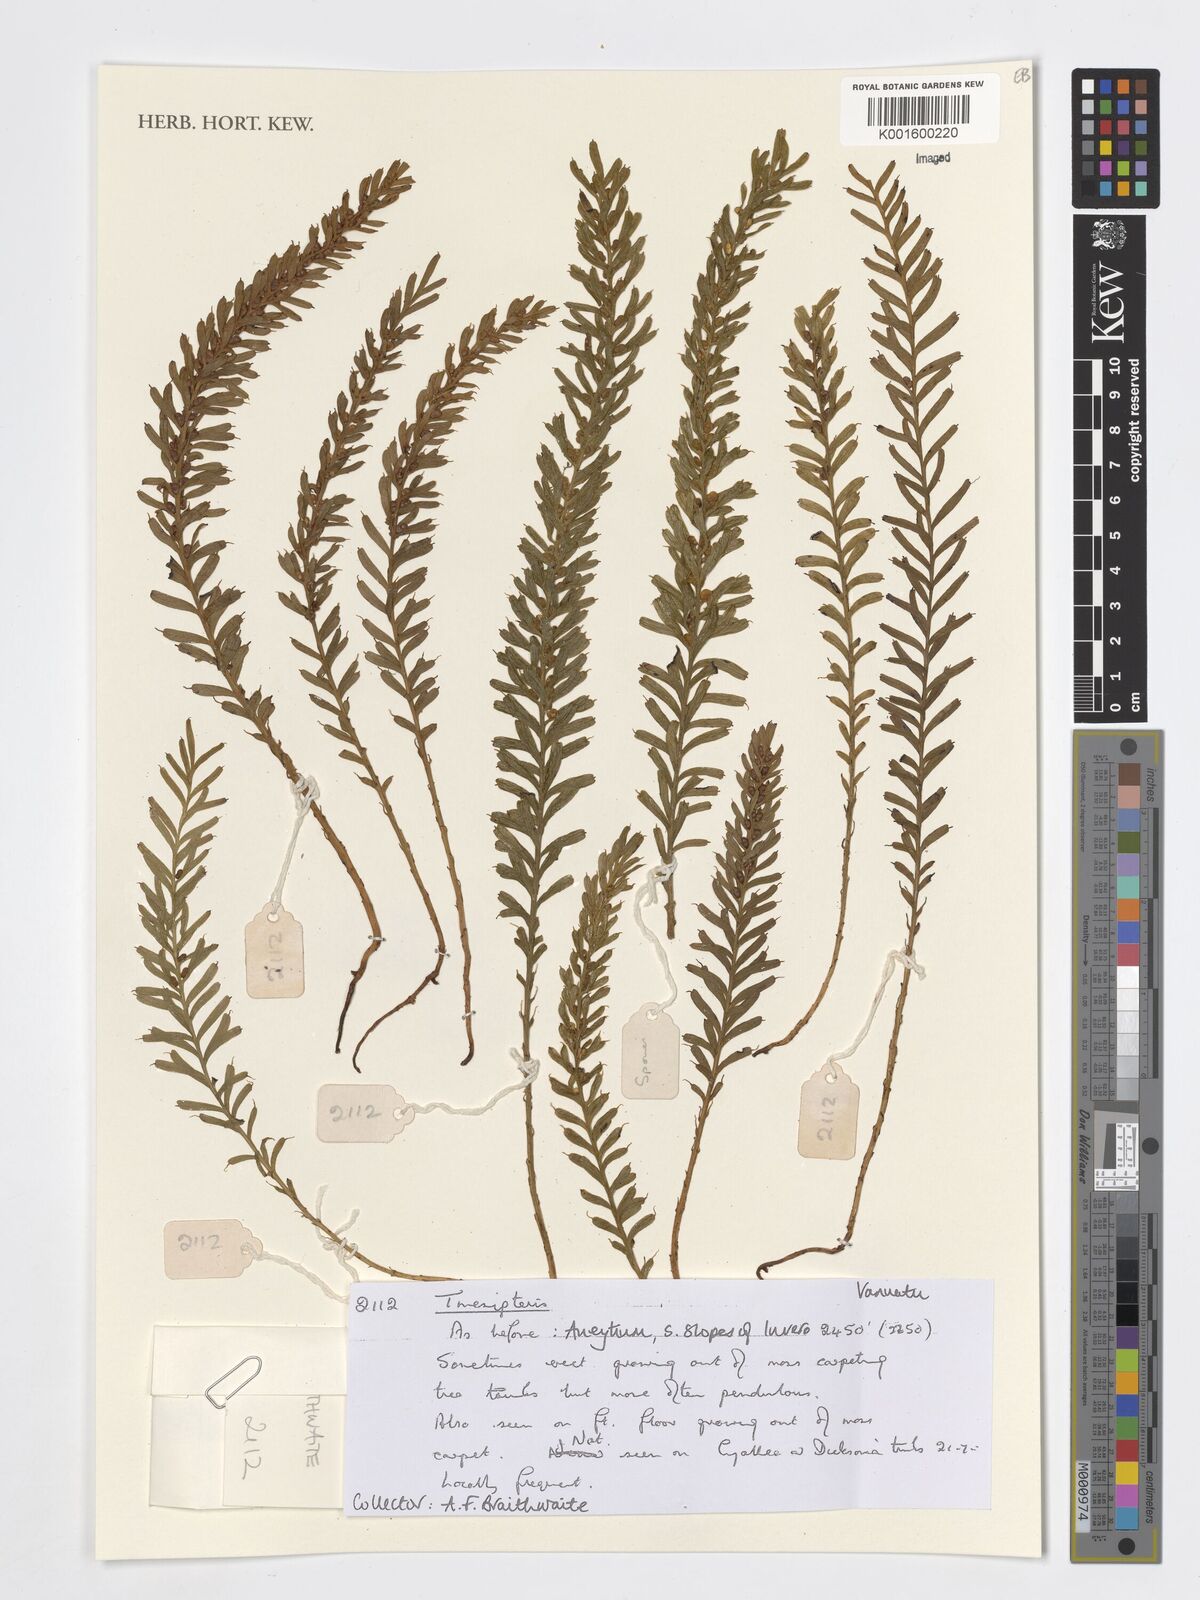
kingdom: Plantae
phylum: Tracheophyta
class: Polypodiopsida
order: Psilotales
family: Psilotaceae
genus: Tmesipteris
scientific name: Tmesipteris
